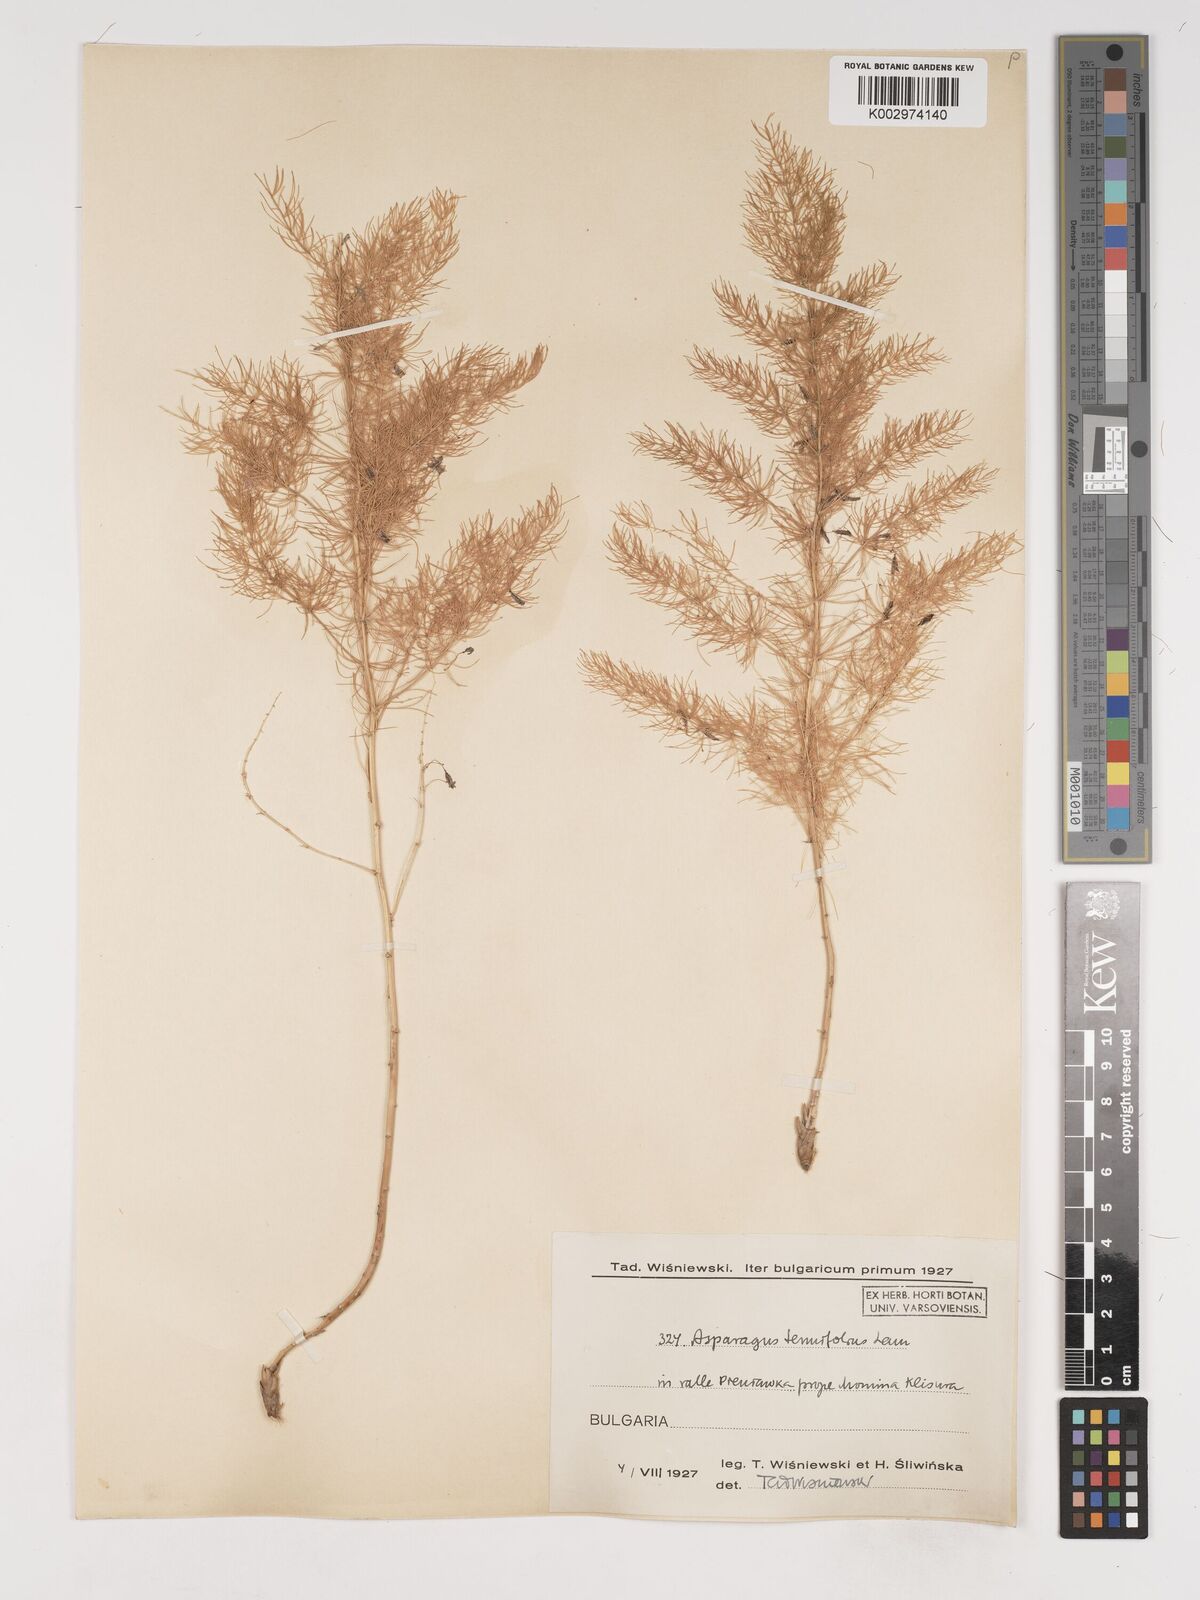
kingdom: Plantae
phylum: Tracheophyta
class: Liliopsida
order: Asparagales
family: Asparagaceae
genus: Asparagus
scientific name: Asparagus tenuifolius
